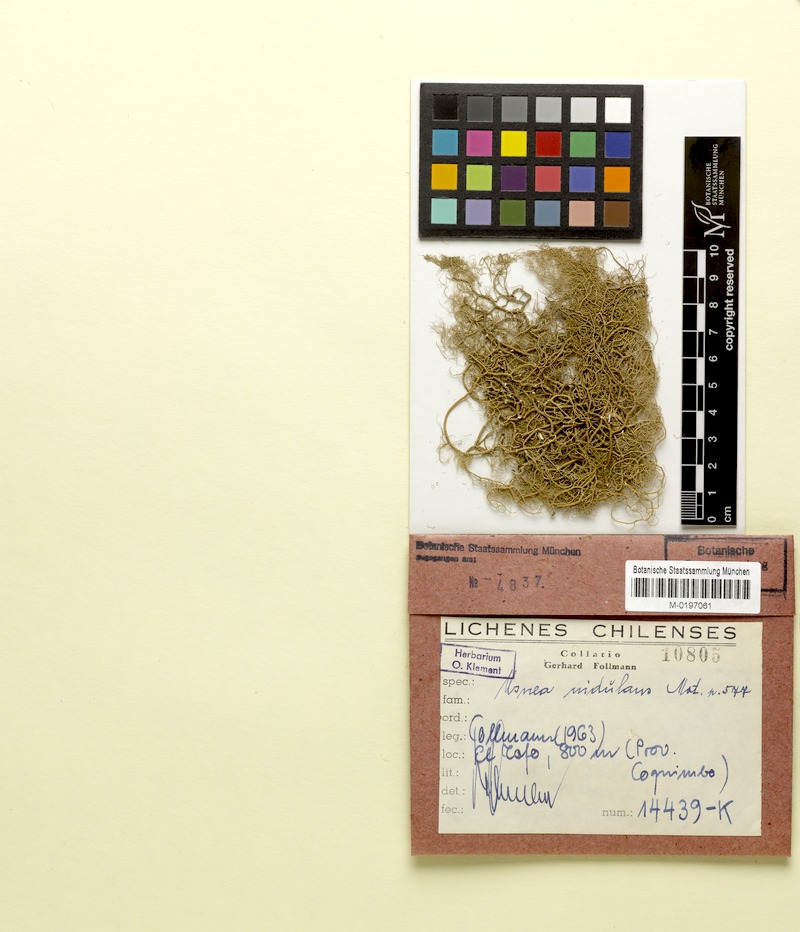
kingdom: Fungi
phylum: Ascomycota
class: Lecanoromycetes
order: Lecanorales
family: Parmeliaceae
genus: Usnea
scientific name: Usnea nidulans
